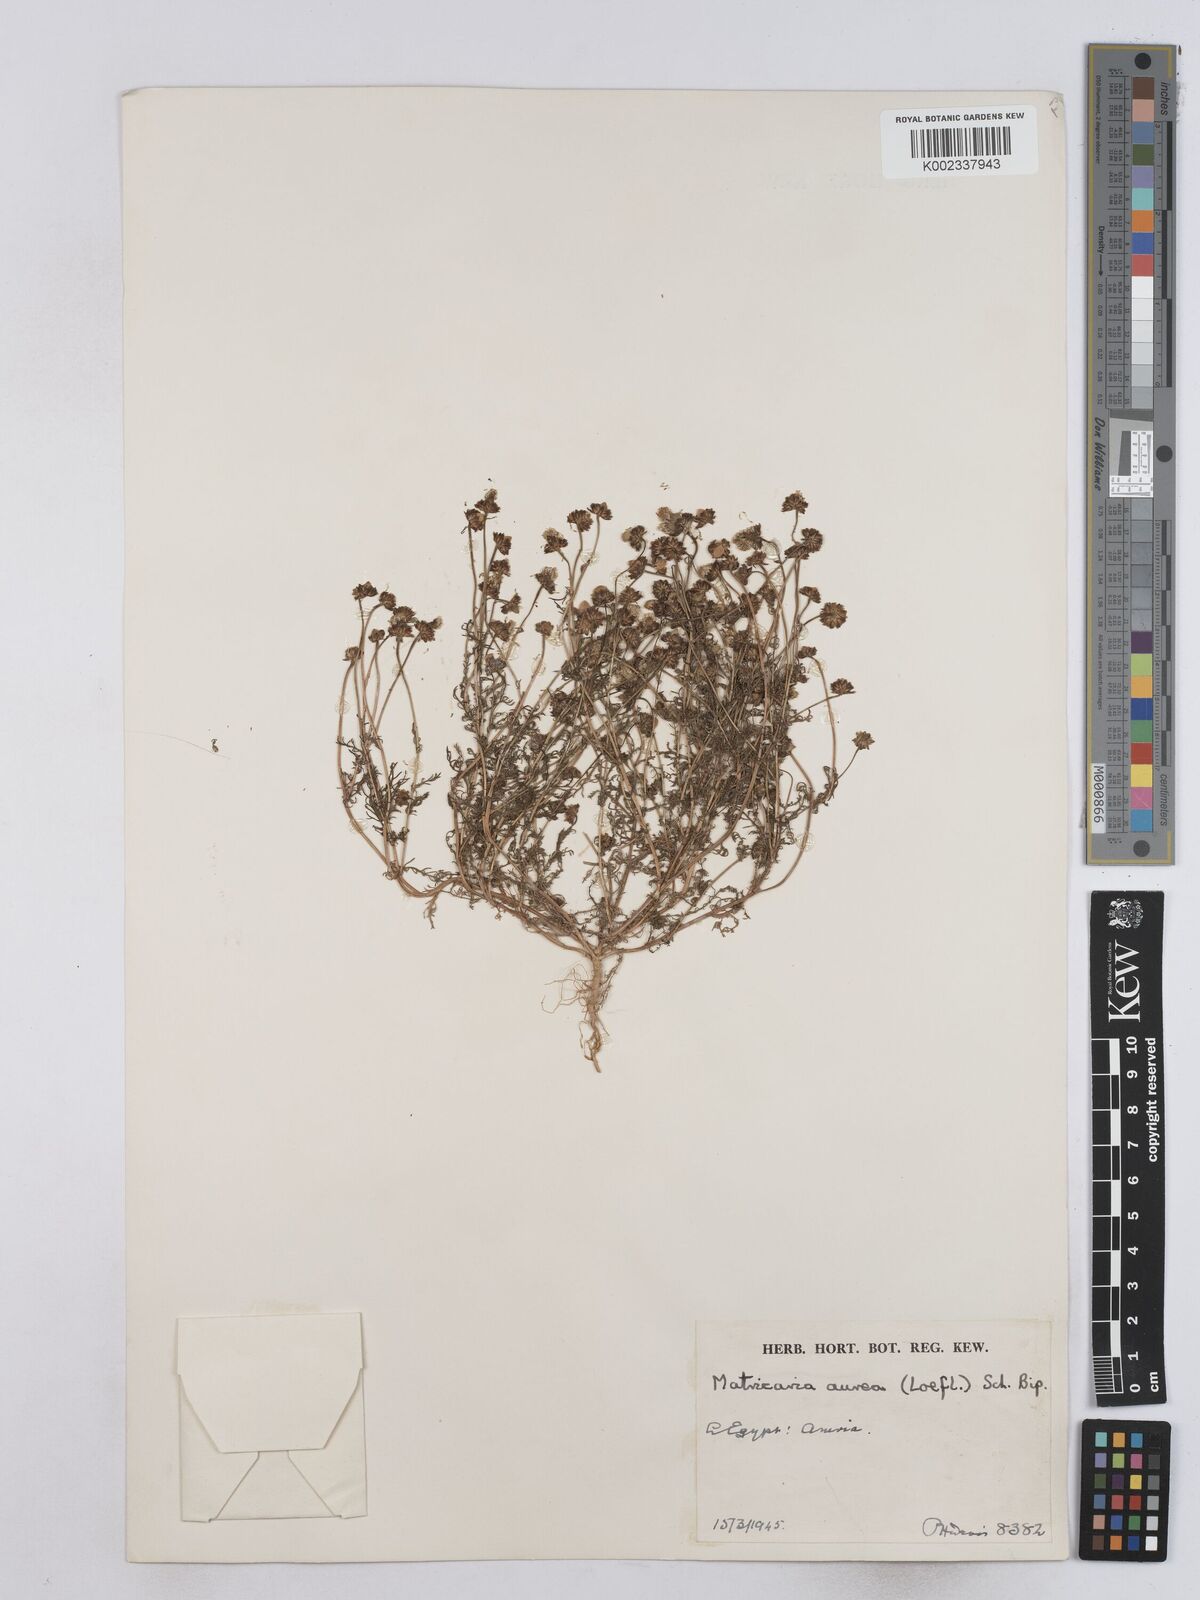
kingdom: Plantae
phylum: Tracheophyta
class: Magnoliopsida
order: Asterales
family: Asteraceae
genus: Matricaria
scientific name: Matricaria
